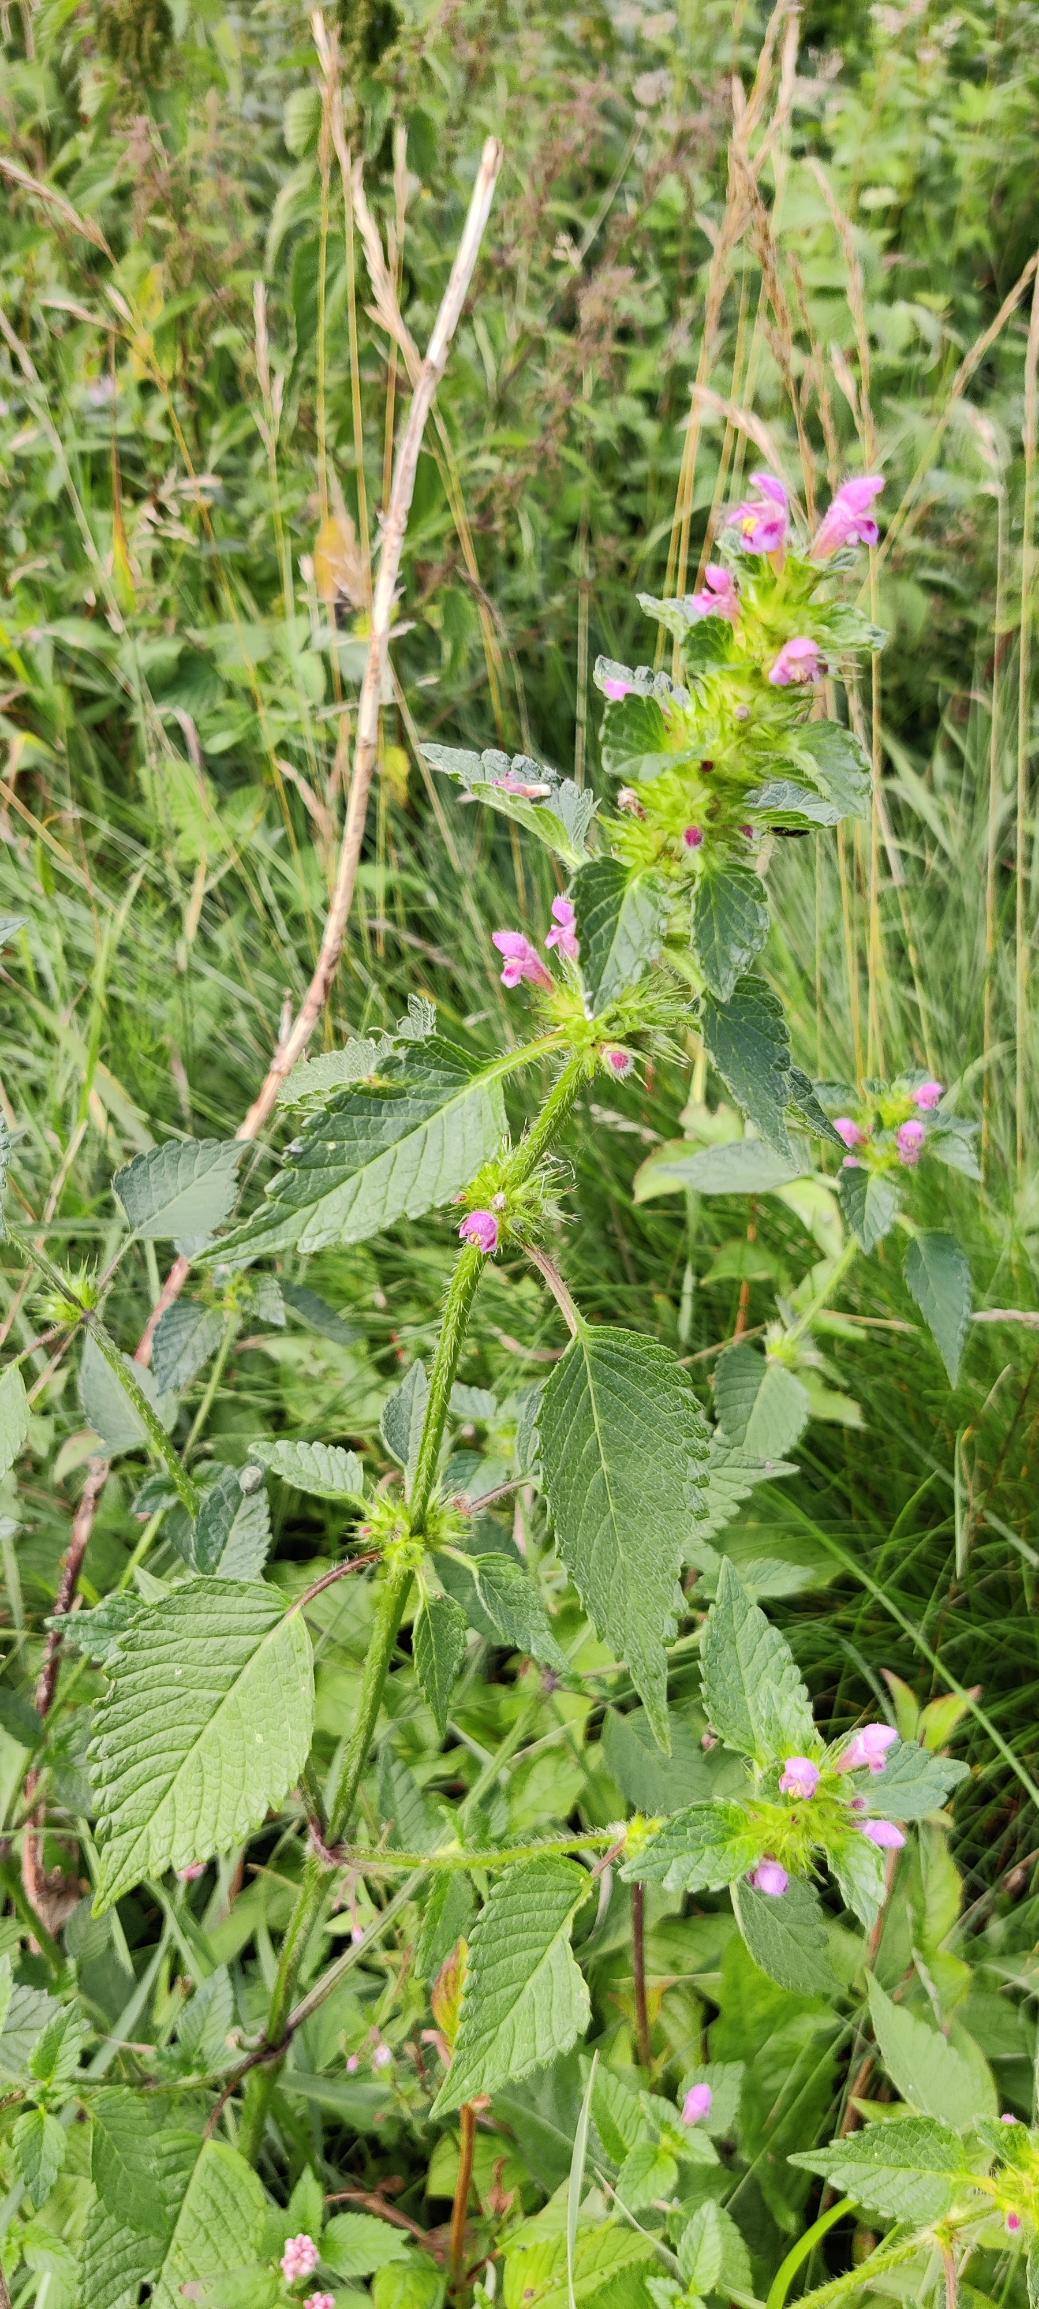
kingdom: Plantae
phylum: Tracheophyta
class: Magnoliopsida
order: Lamiales
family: Lamiaceae
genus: Galeopsis
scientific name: Galeopsis tetrahit
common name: Almindelig hanekro
